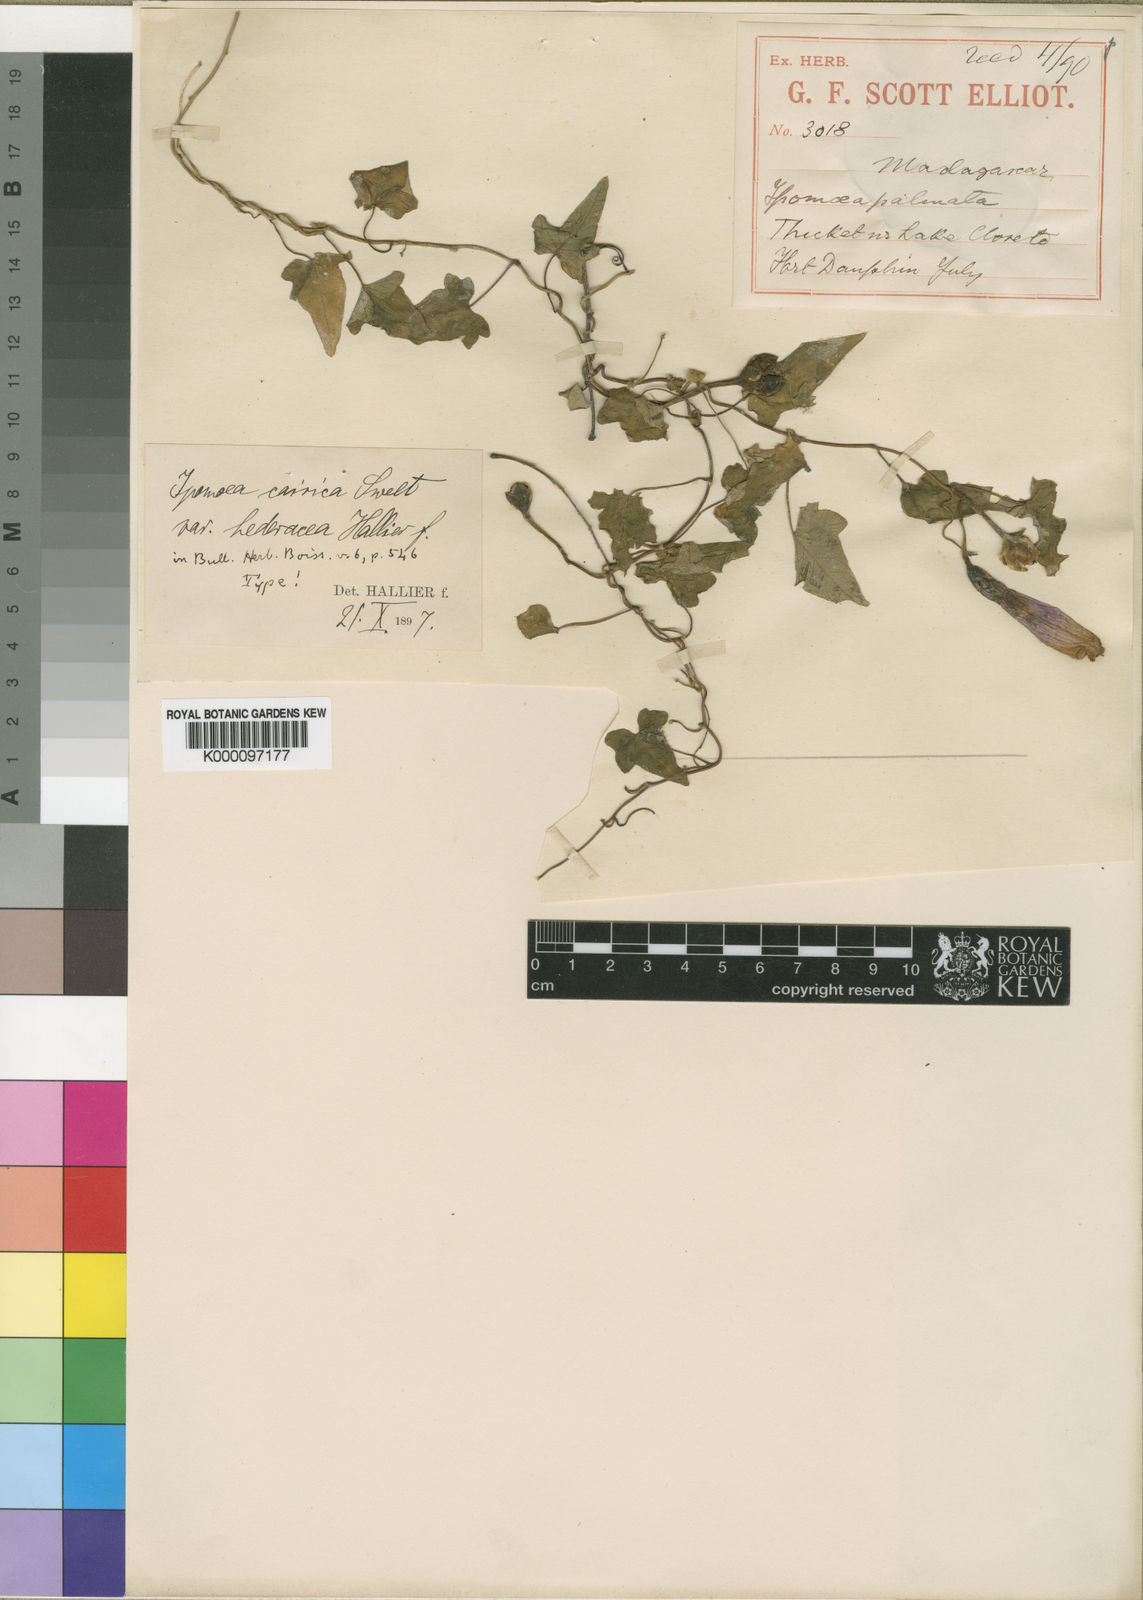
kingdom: Plantae
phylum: Tracheophyta
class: Magnoliopsida
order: Solanales
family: Convolvulaceae
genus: Ipomoea
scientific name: Ipomoea
